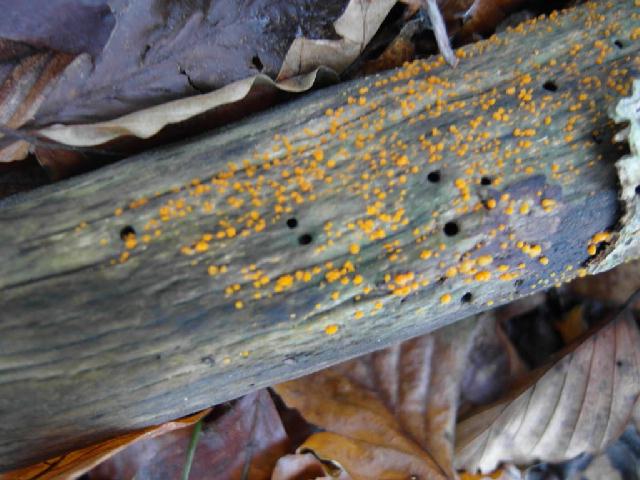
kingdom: Fungi
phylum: Basidiomycota
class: Dacrymycetes
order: Dacrymycetales
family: Dacrymycetaceae
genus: Dacrymyces
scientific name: Dacrymyces stillatus
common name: almindelig tåresvamp
